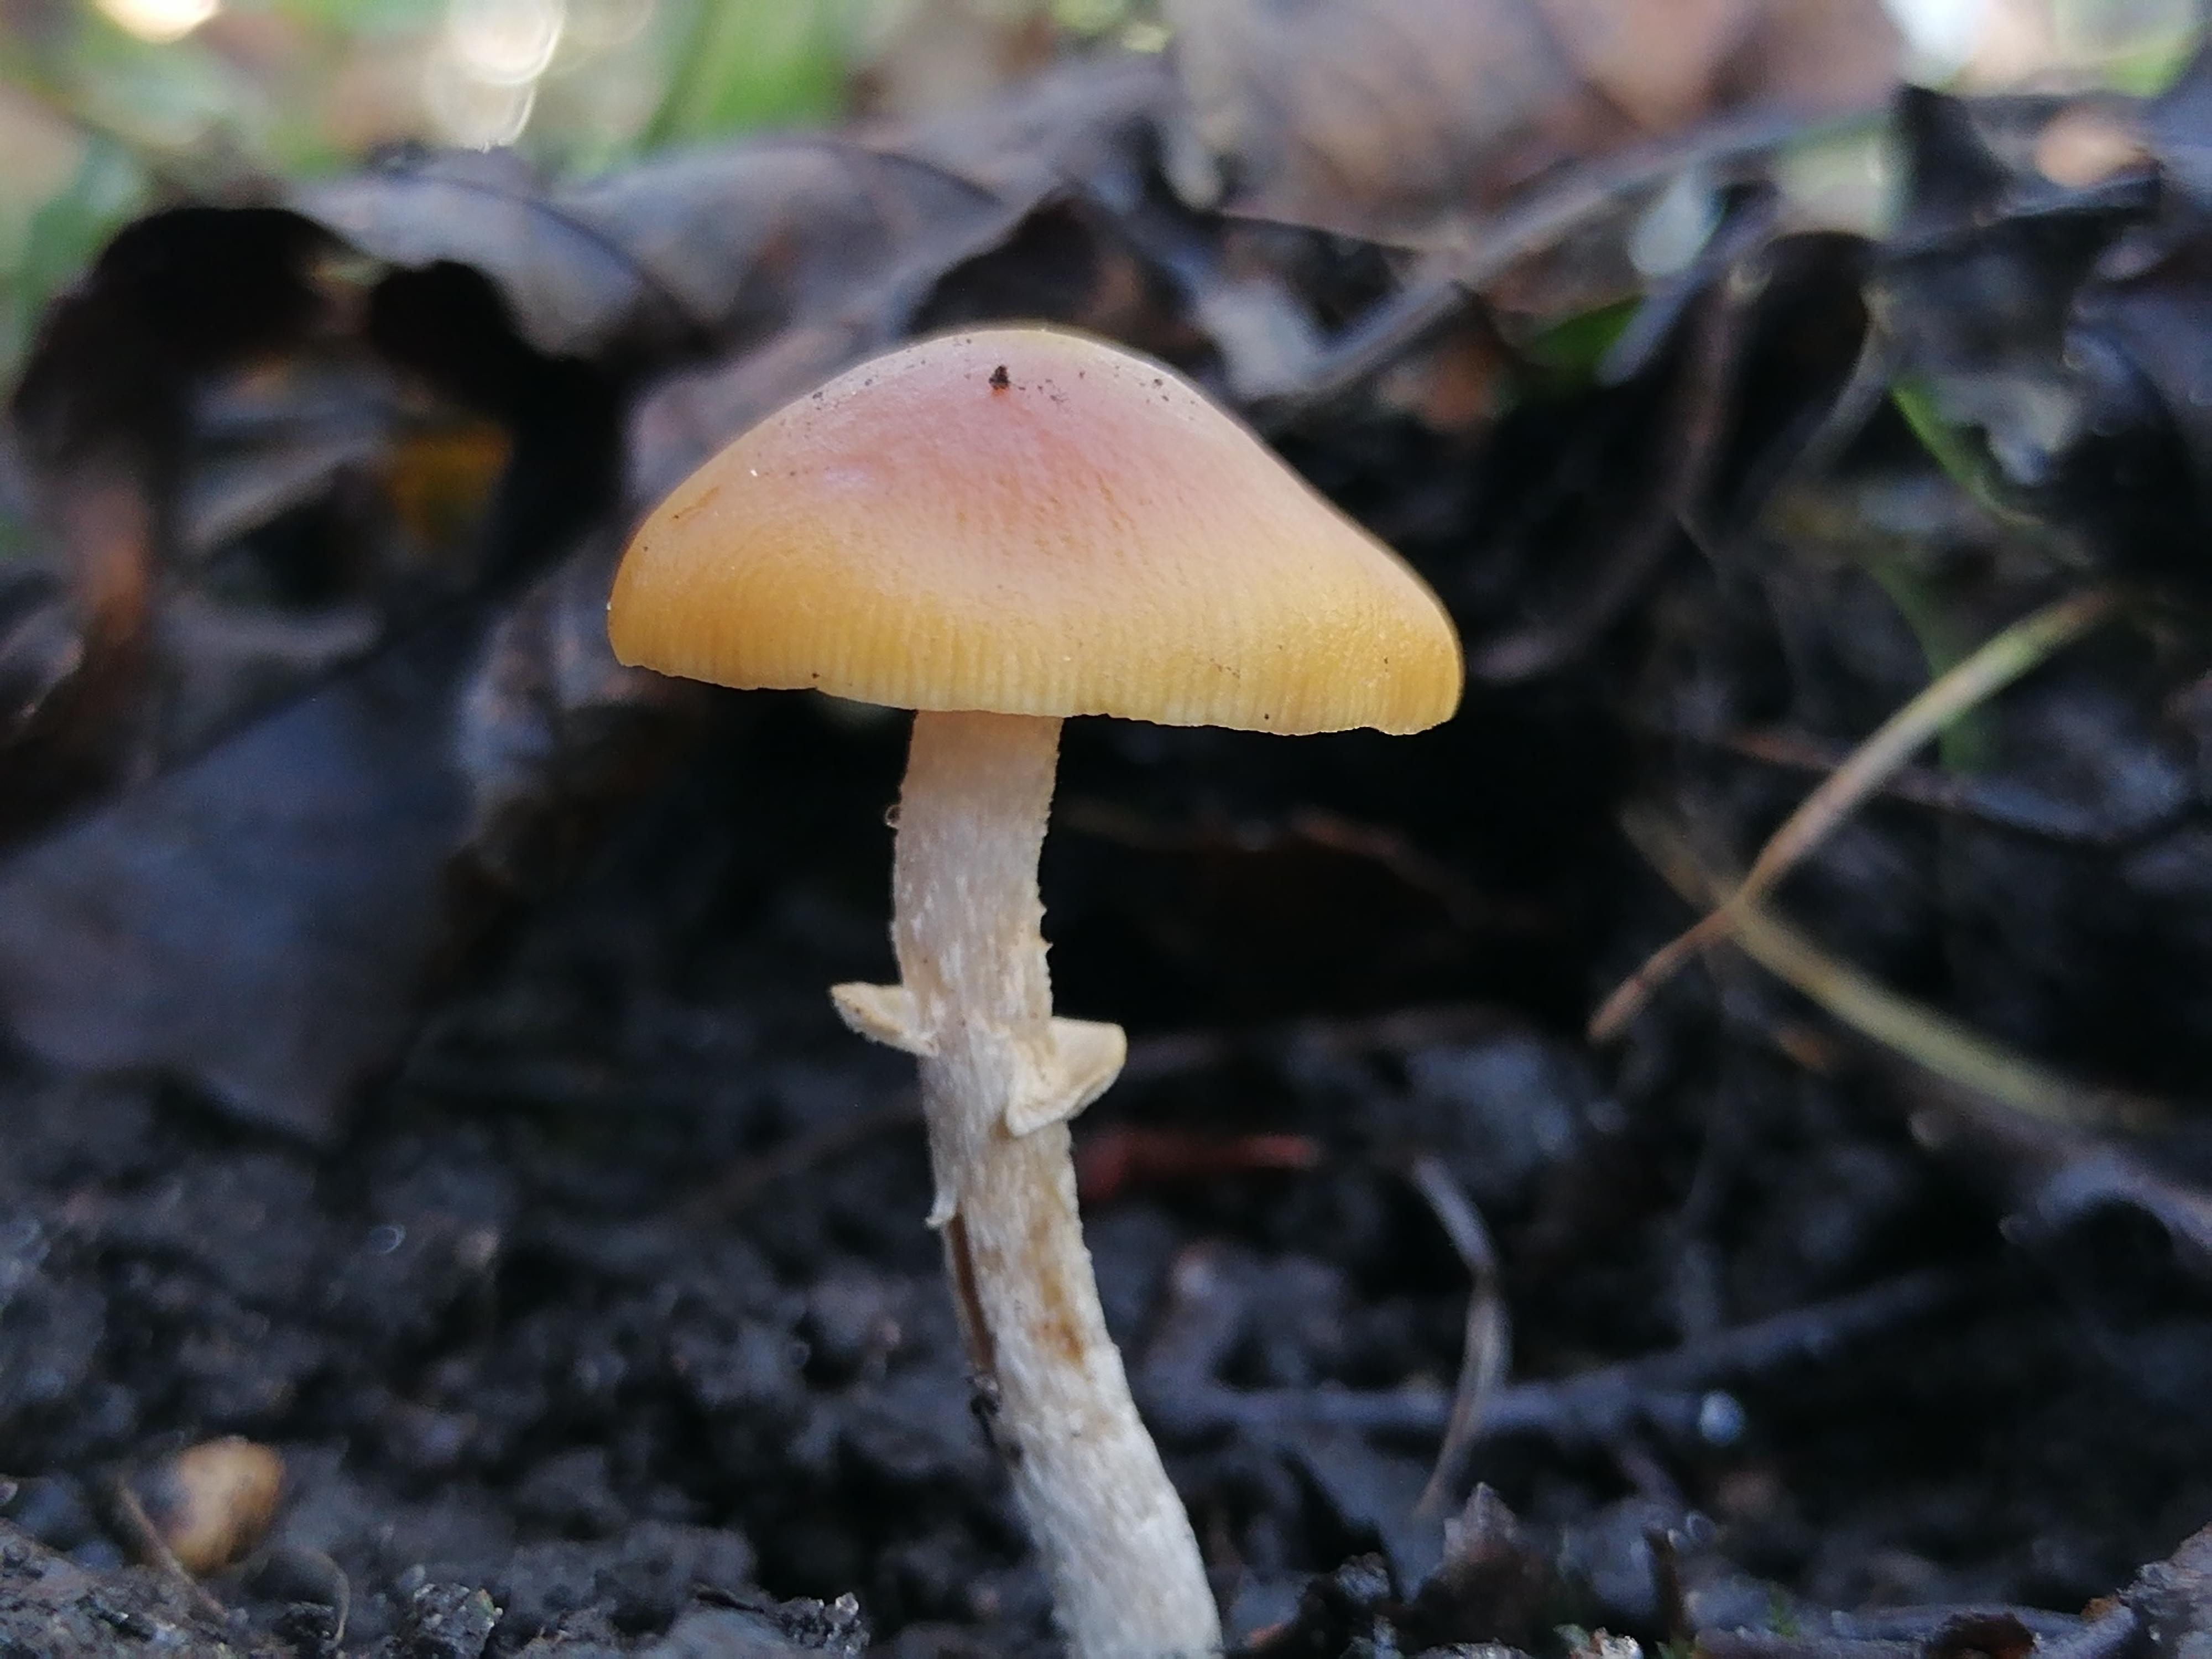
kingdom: Fungi
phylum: Basidiomycota
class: Agaricomycetes
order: Agaricales
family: Bolbitiaceae
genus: Pholiotina
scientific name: Pholiotina
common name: dansehat
